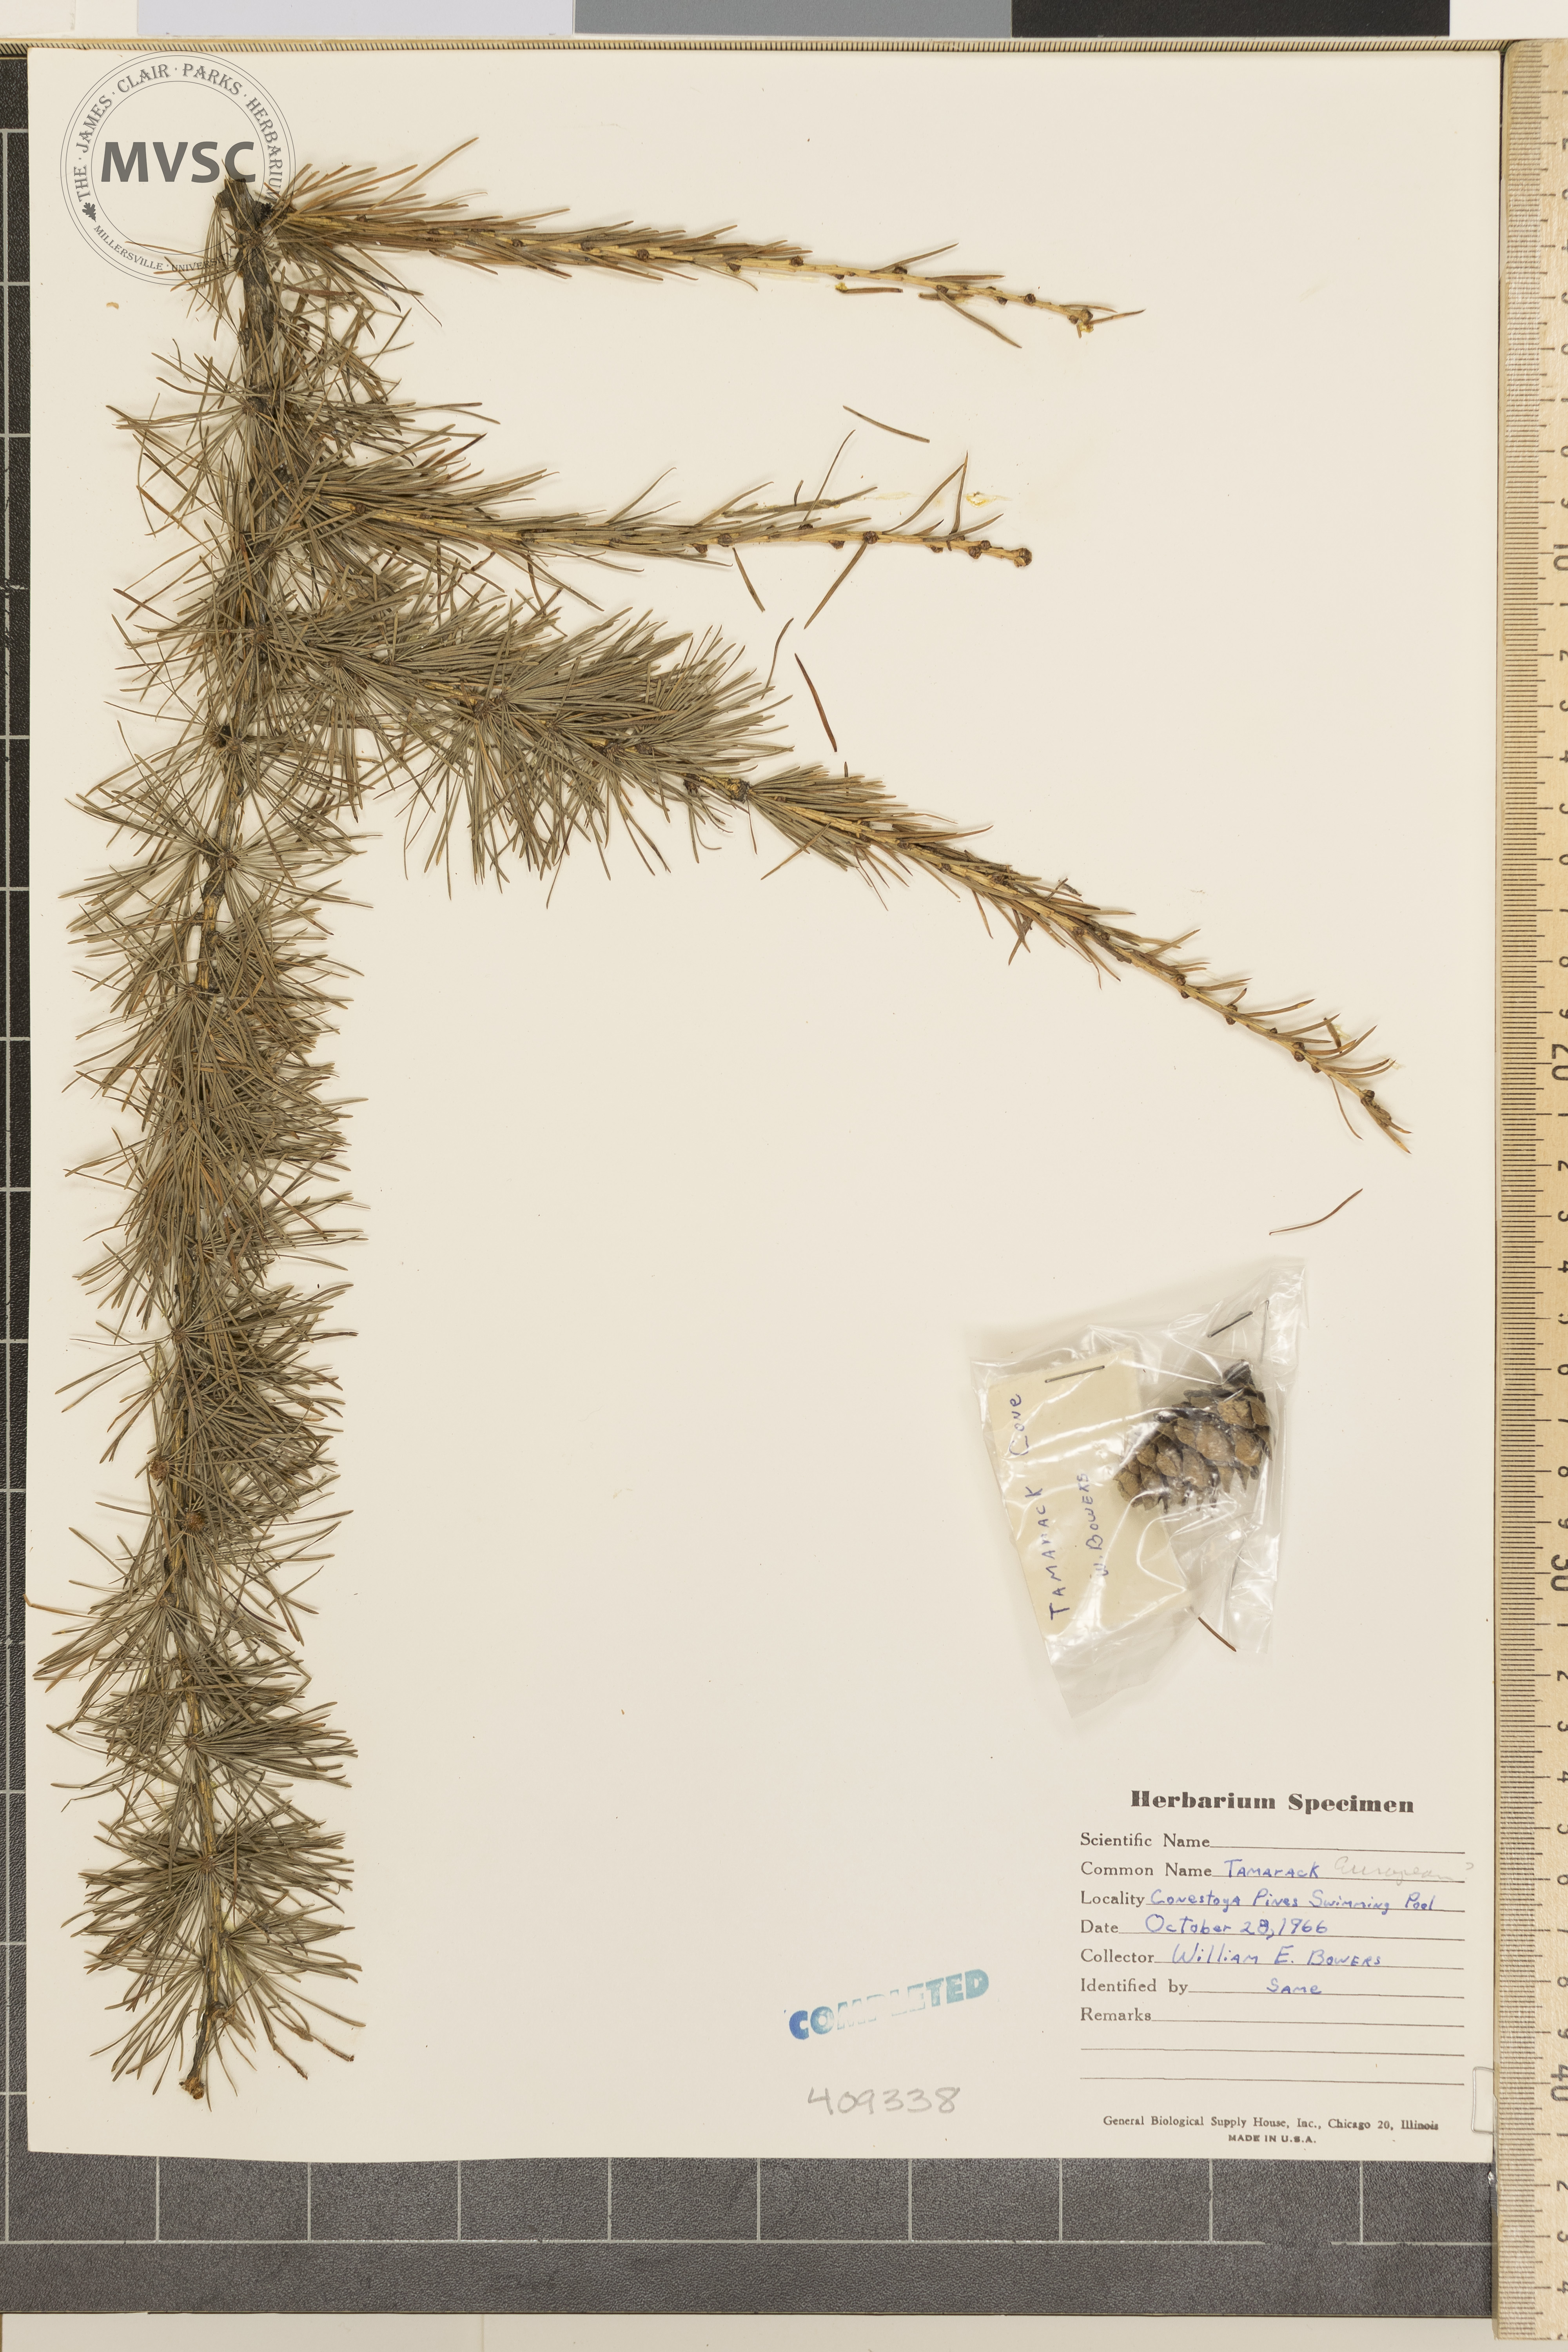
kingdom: Plantae
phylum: Tracheophyta
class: Pinopsida
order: Pinales
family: Pinaceae
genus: Larix
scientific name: Larix
